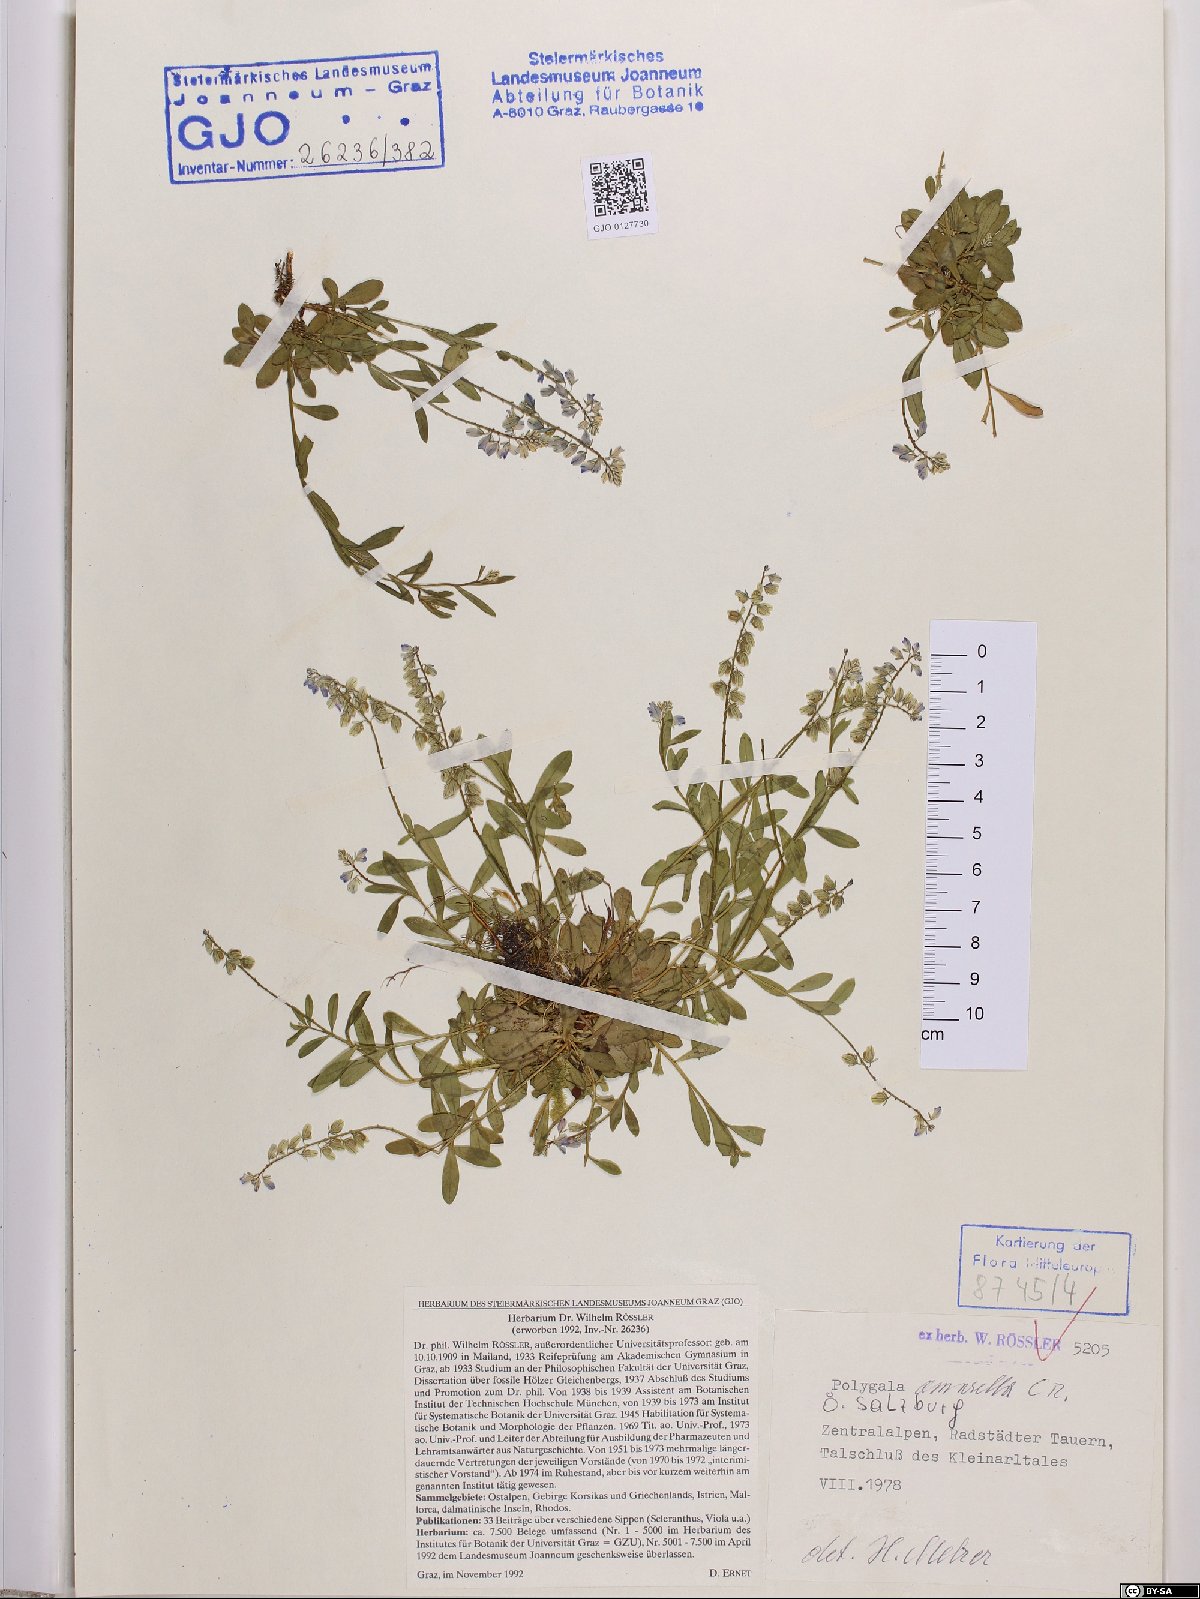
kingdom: Plantae
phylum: Tracheophyta
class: Magnoliopsida
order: Fabales
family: Polygalaceae
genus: Polygala
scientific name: Polygala amarella
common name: Dwarf milkwort
